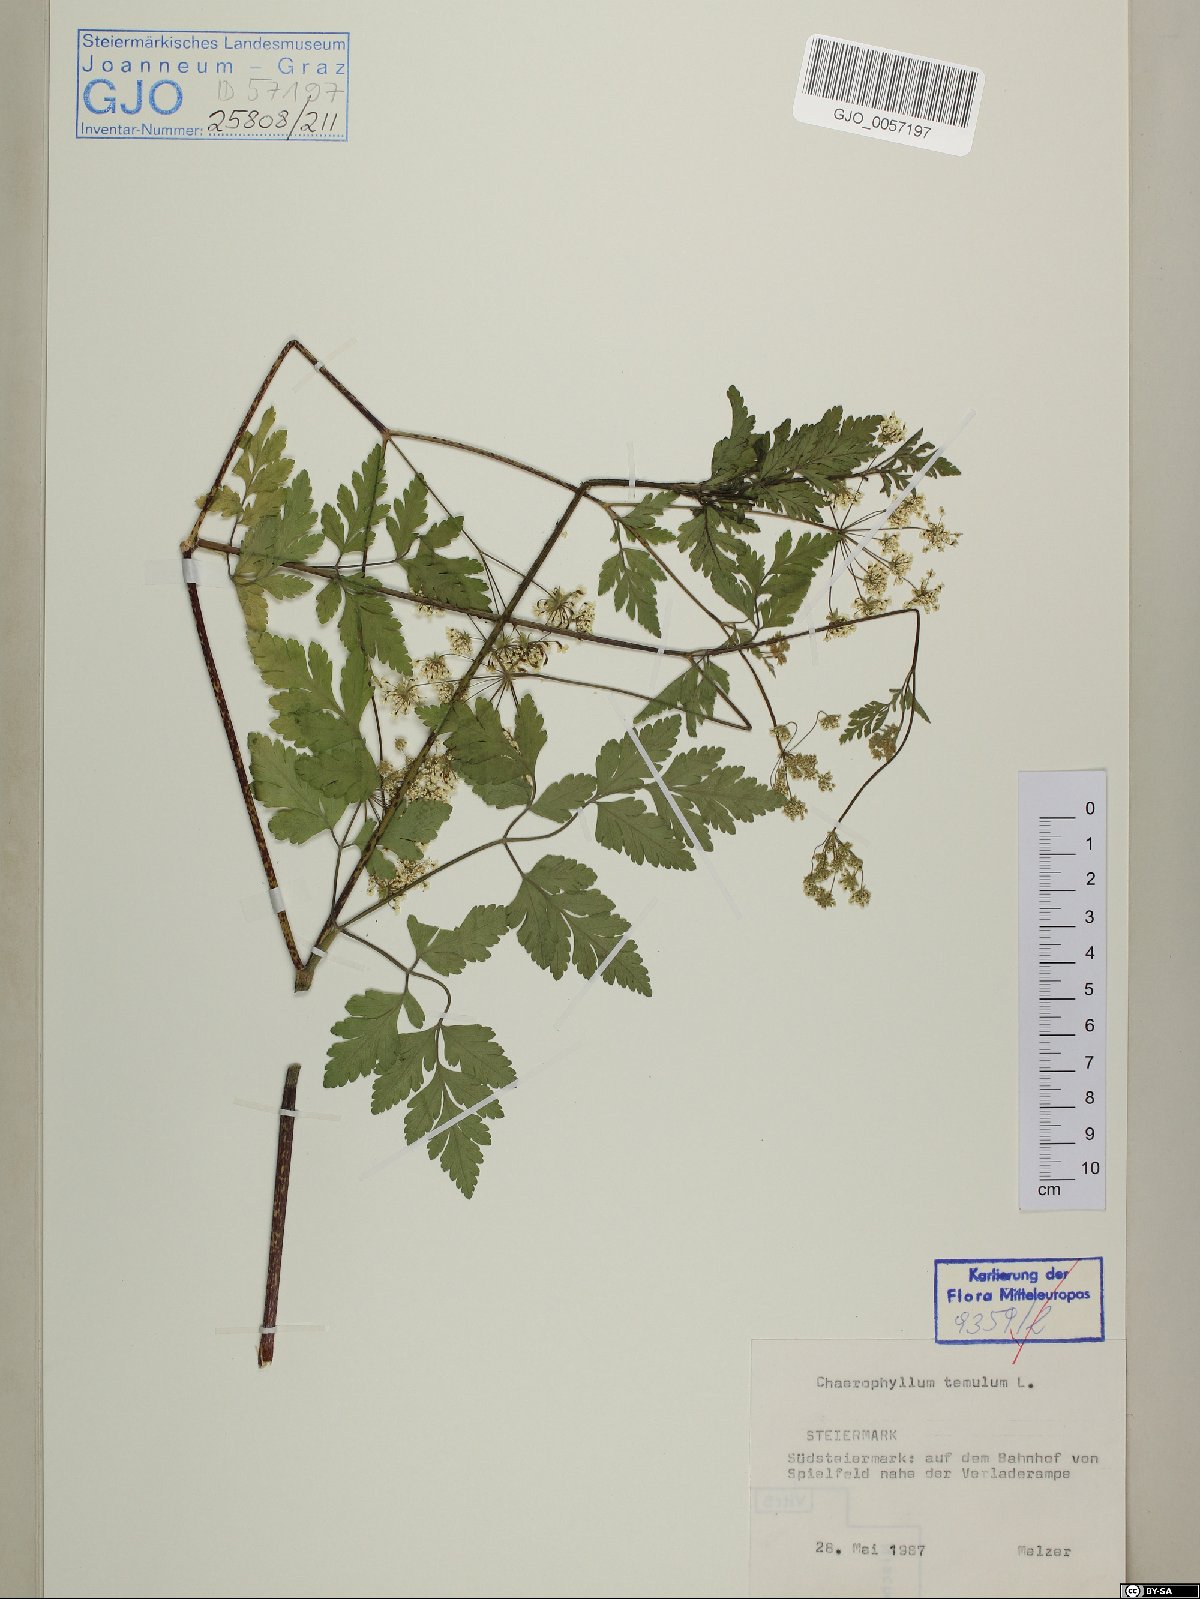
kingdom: Plantae
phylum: Tracheophyta
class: Magnoliopsida
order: Apiales
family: Apiaceae
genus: Chaerophyllum
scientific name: Chaerophyllum temulum
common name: Rough chervil
